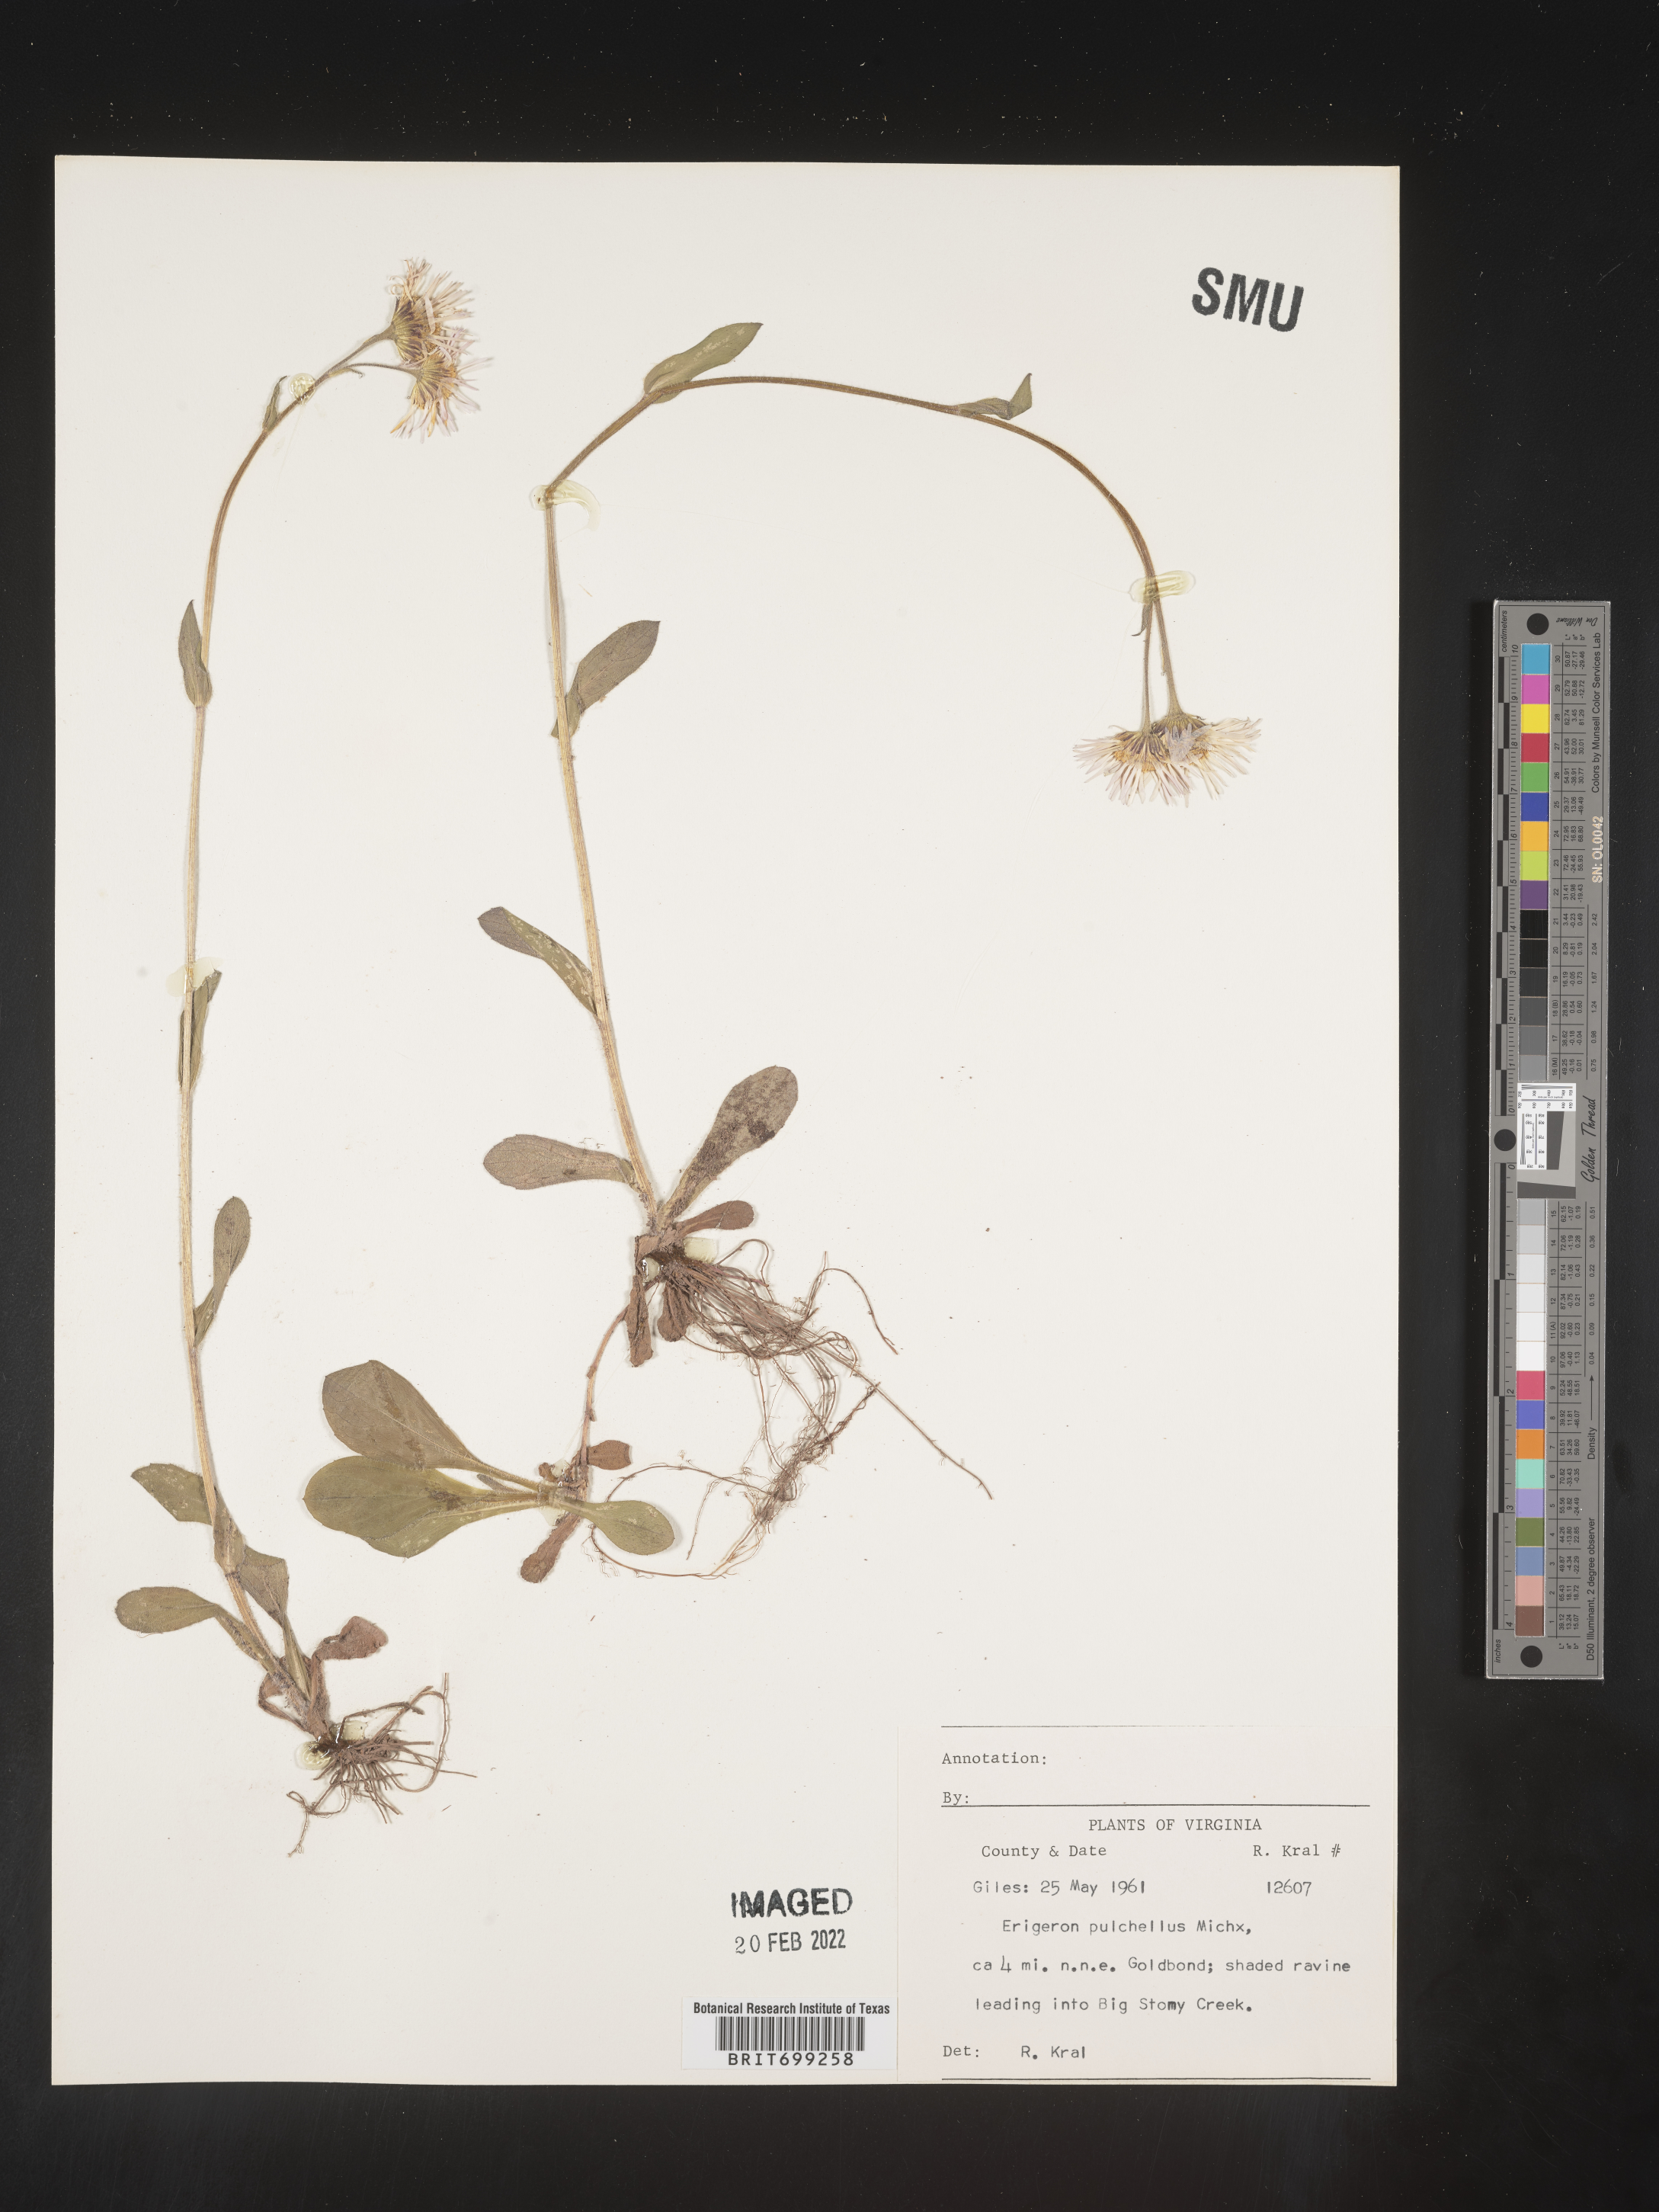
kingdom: Plantae
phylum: Tracheophyta
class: Magnoliopsida
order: Asterales
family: Asteraceae
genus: Erigeron
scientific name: Erigeron pulchellus
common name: Hairy fleabane
